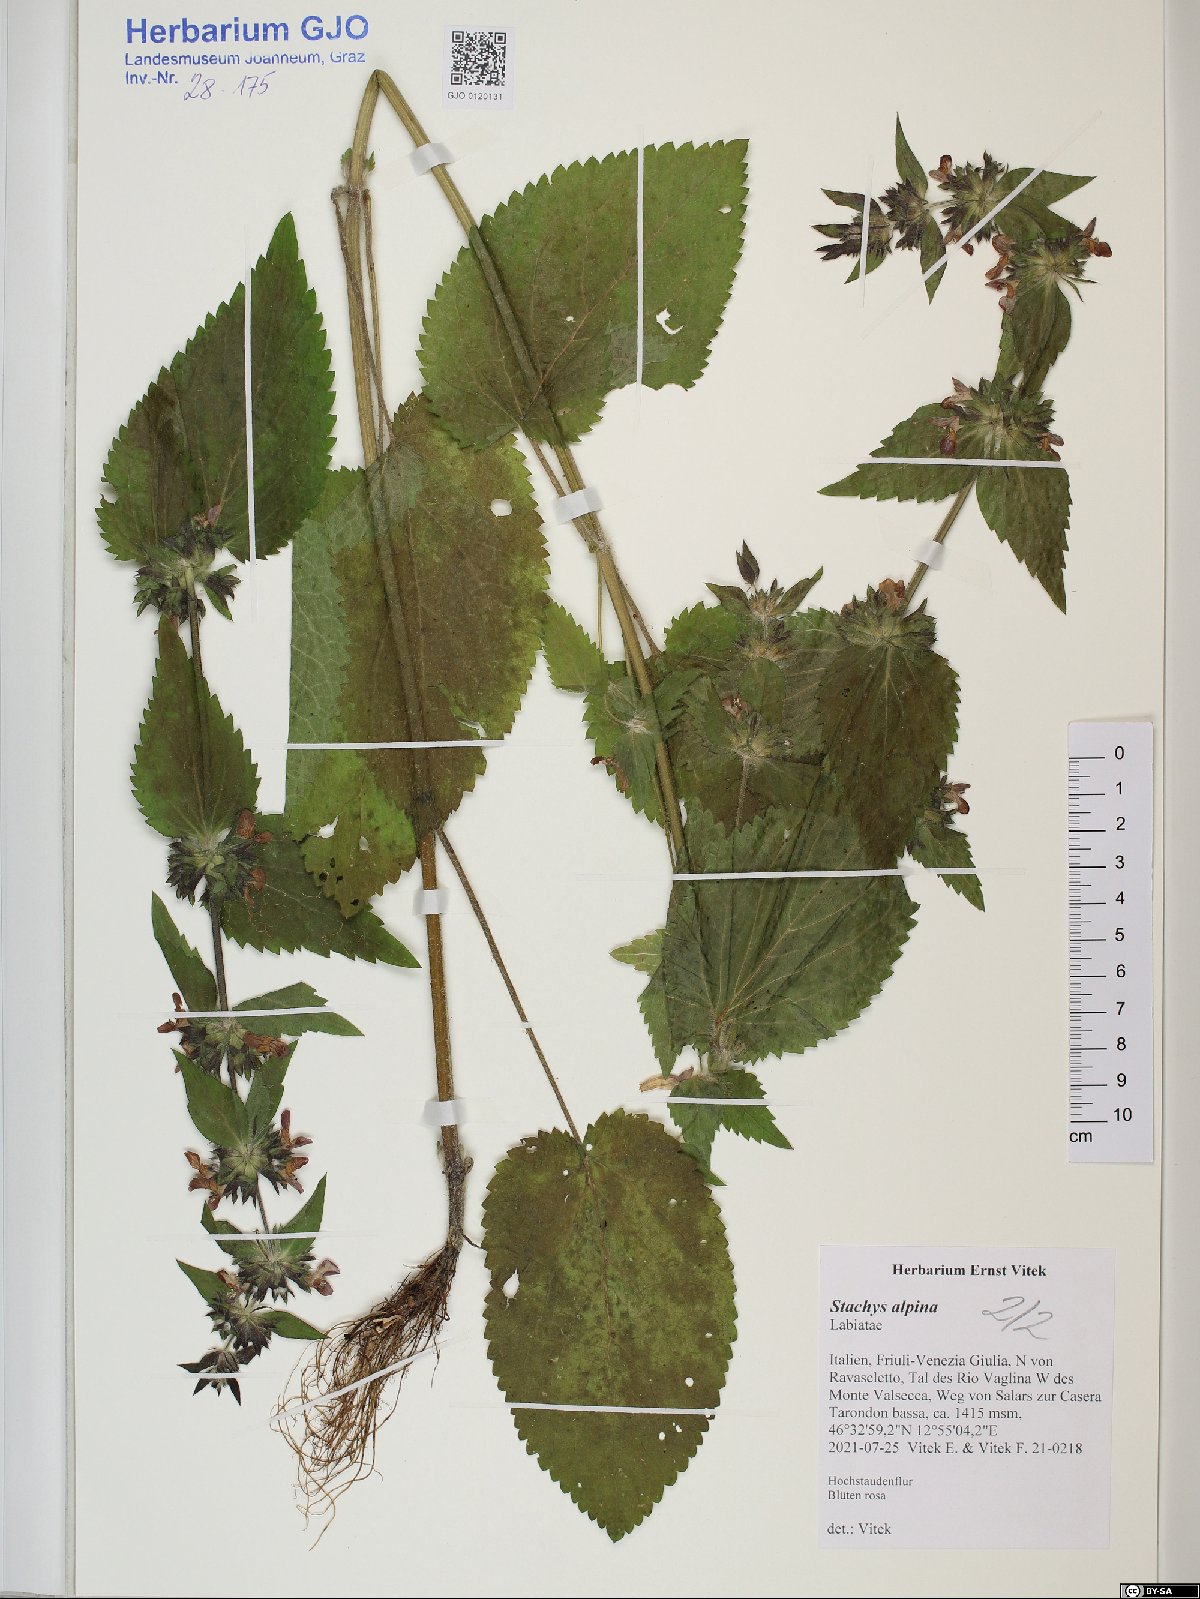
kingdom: Plantae
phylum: Tracheophyta
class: Magnoliopsida
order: Lamiales
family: Lamiaceae
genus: Stachys
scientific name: Stachys alpina
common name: Limestone woundwort
